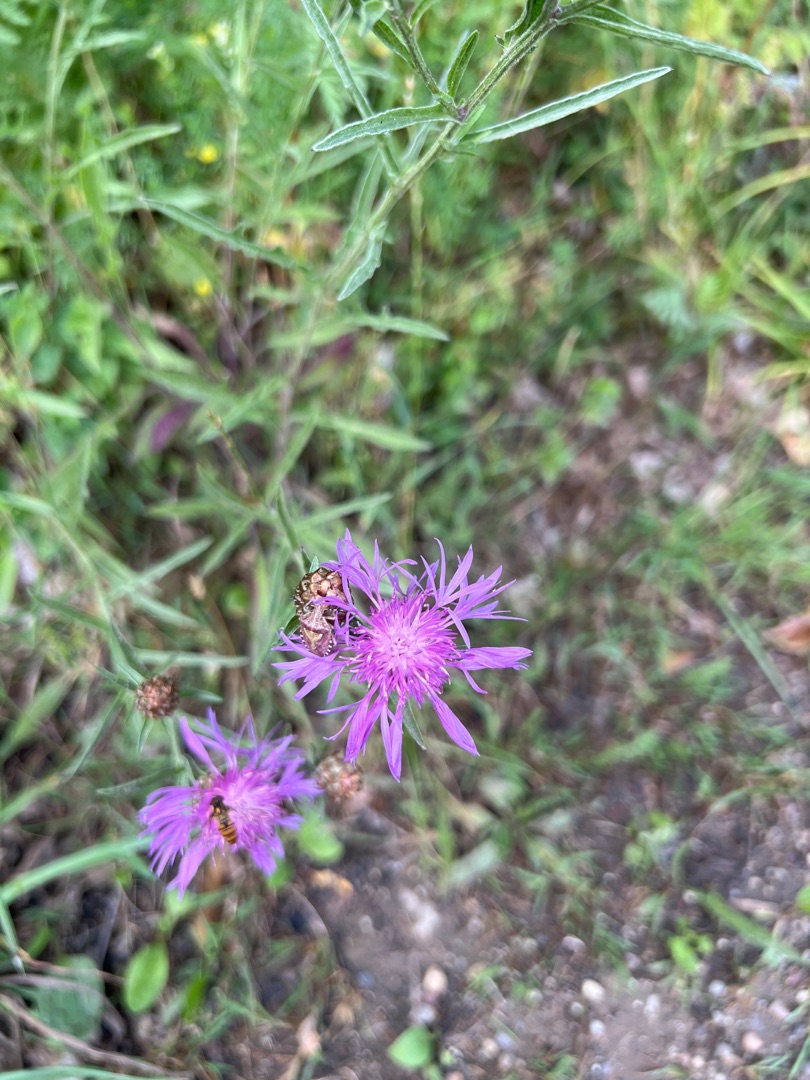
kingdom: Plantae
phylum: Tracheophyta
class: Magnoliopsida
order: Asterales
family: Asteraceae
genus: Centaurea
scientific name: Centaurea jacea
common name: Almindelig knopurt
